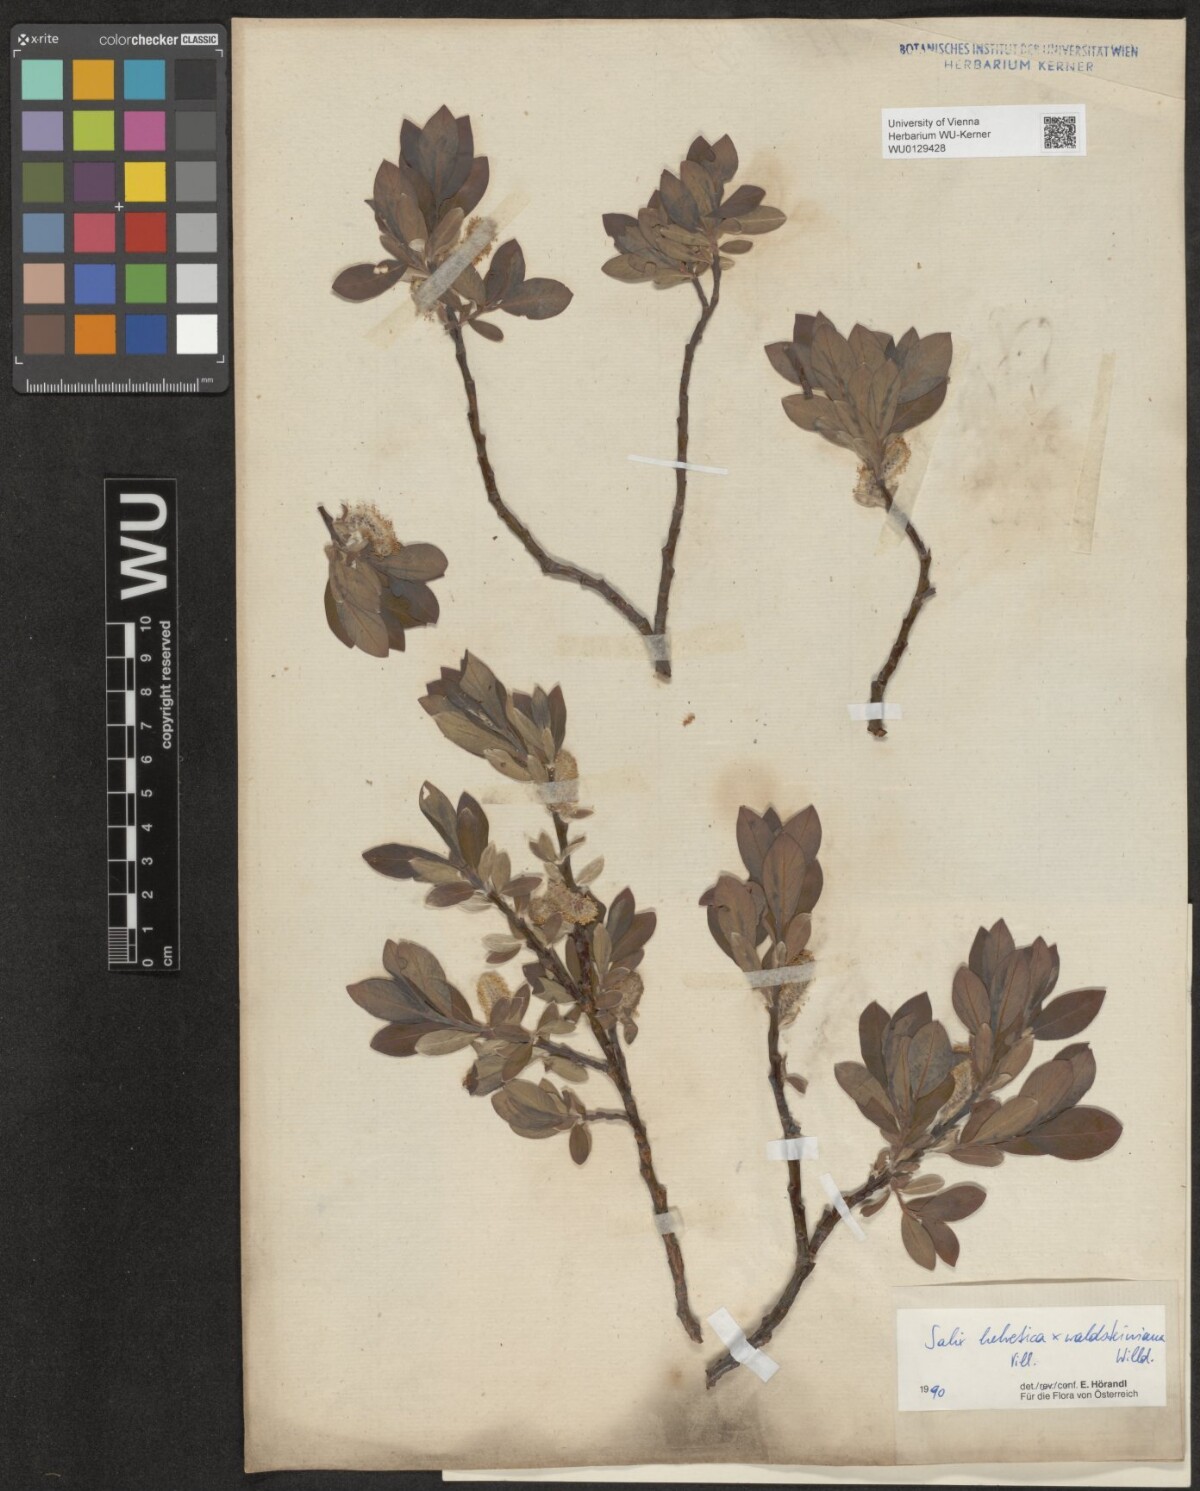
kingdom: Plantae
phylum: Tracheophyta
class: Magnoliopsida
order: Malpighiales
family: Salicaceae
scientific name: Salicaceae
